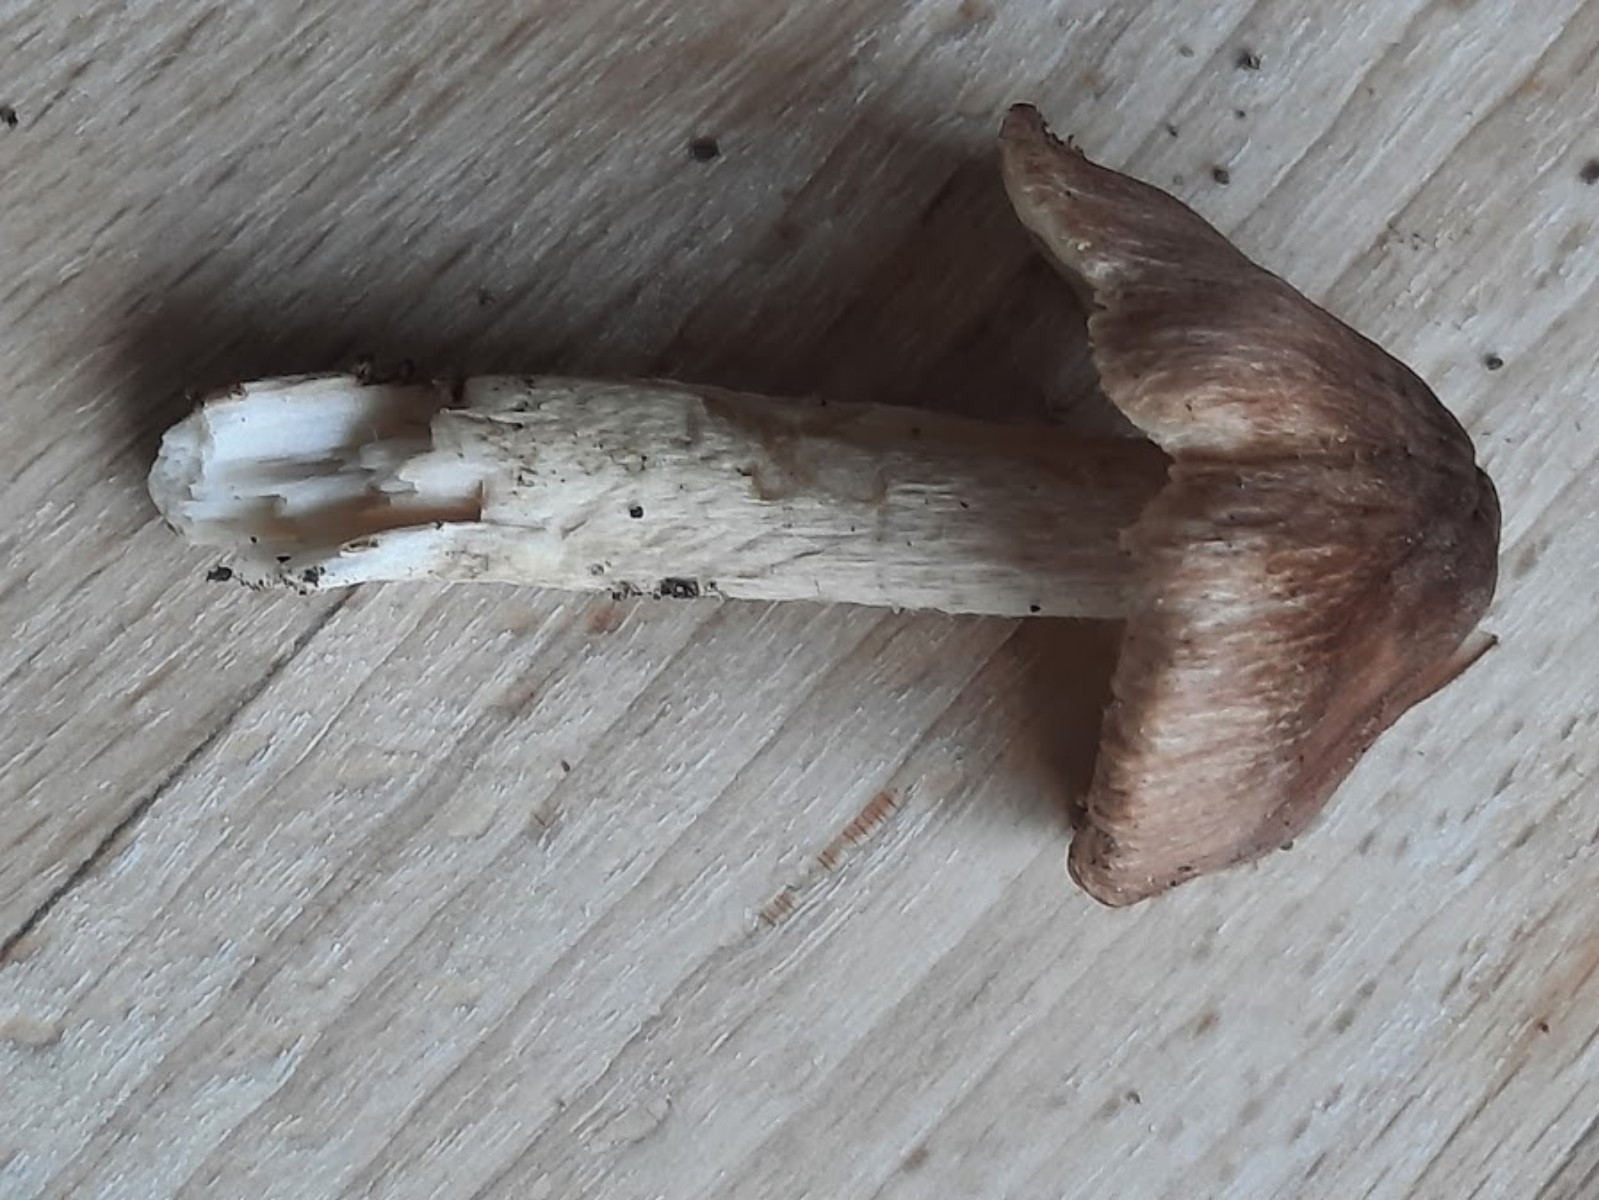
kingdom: Fungi
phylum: Basidiomycota
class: Agaricomycetes
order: Agaricales
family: Inocybaceae
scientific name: Inocybaceae
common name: trævlhatfamilien
